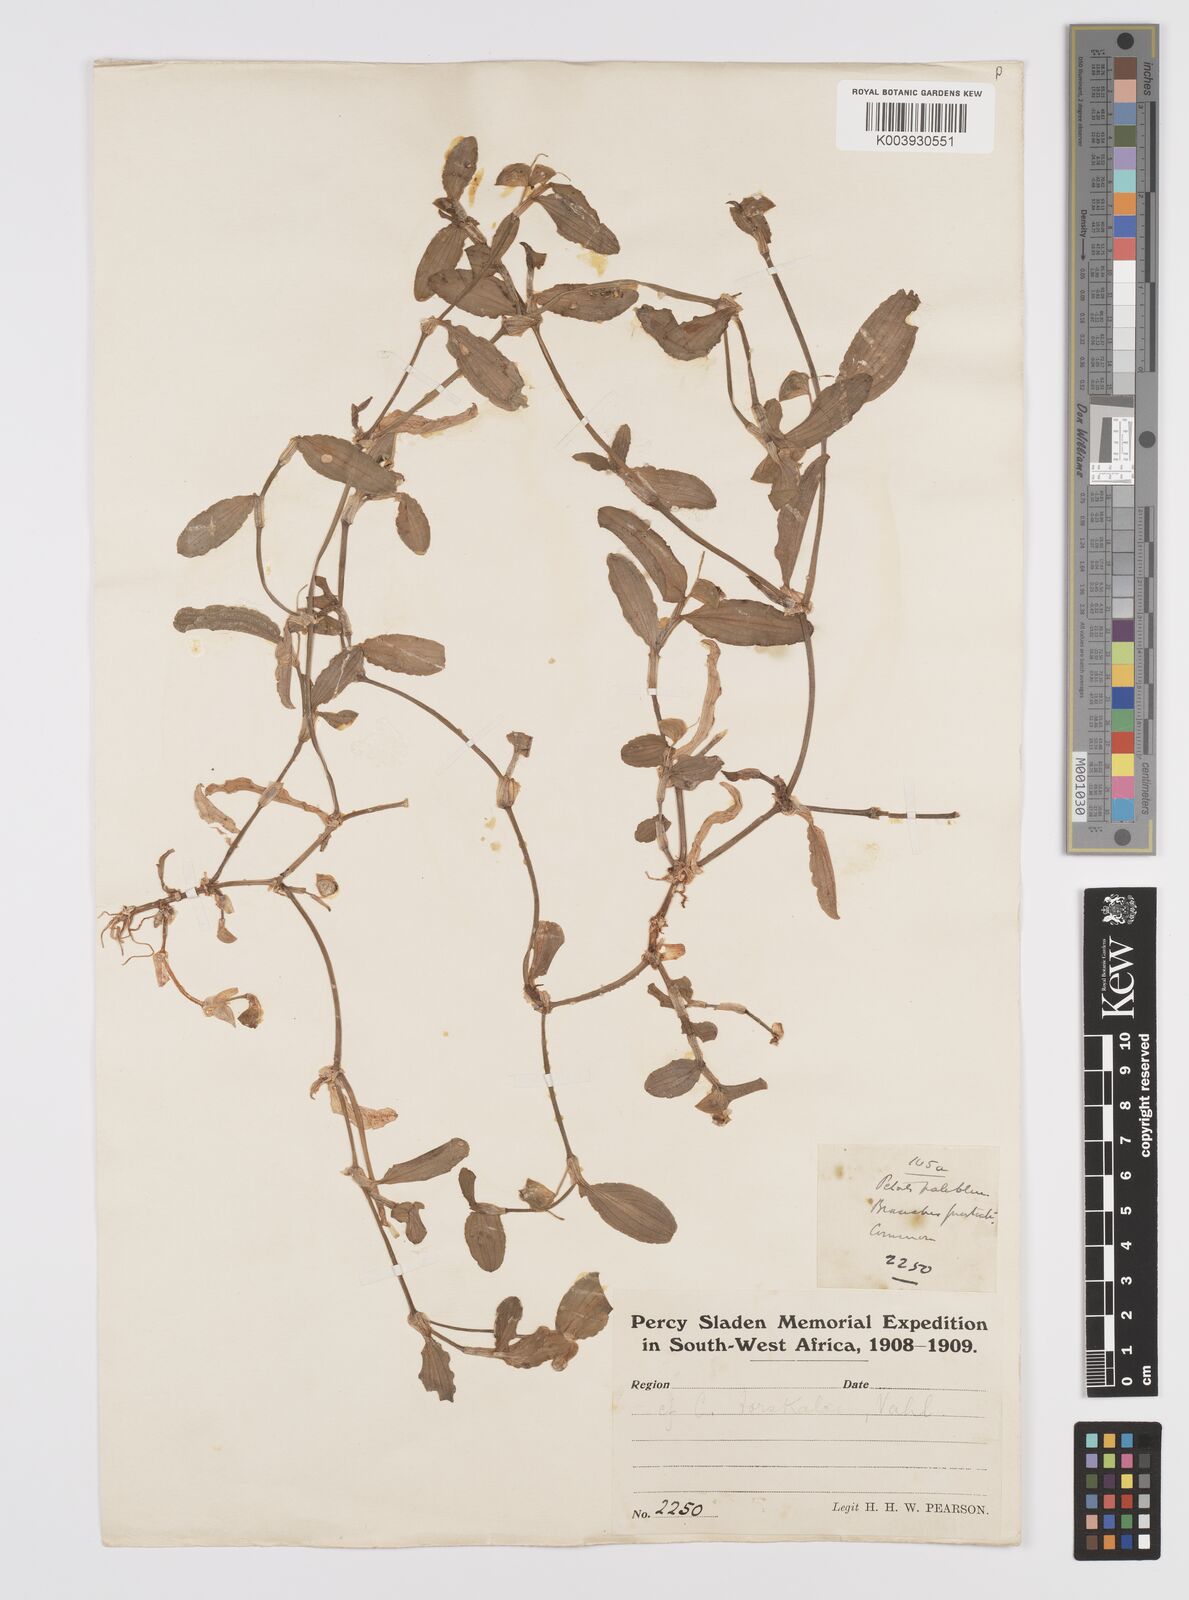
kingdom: Plantae
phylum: Tracheophyta
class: Liliopsida
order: Commelinales
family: Commelinaceae
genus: Commelina
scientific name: Commelina forskaolii
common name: Rat's ear
